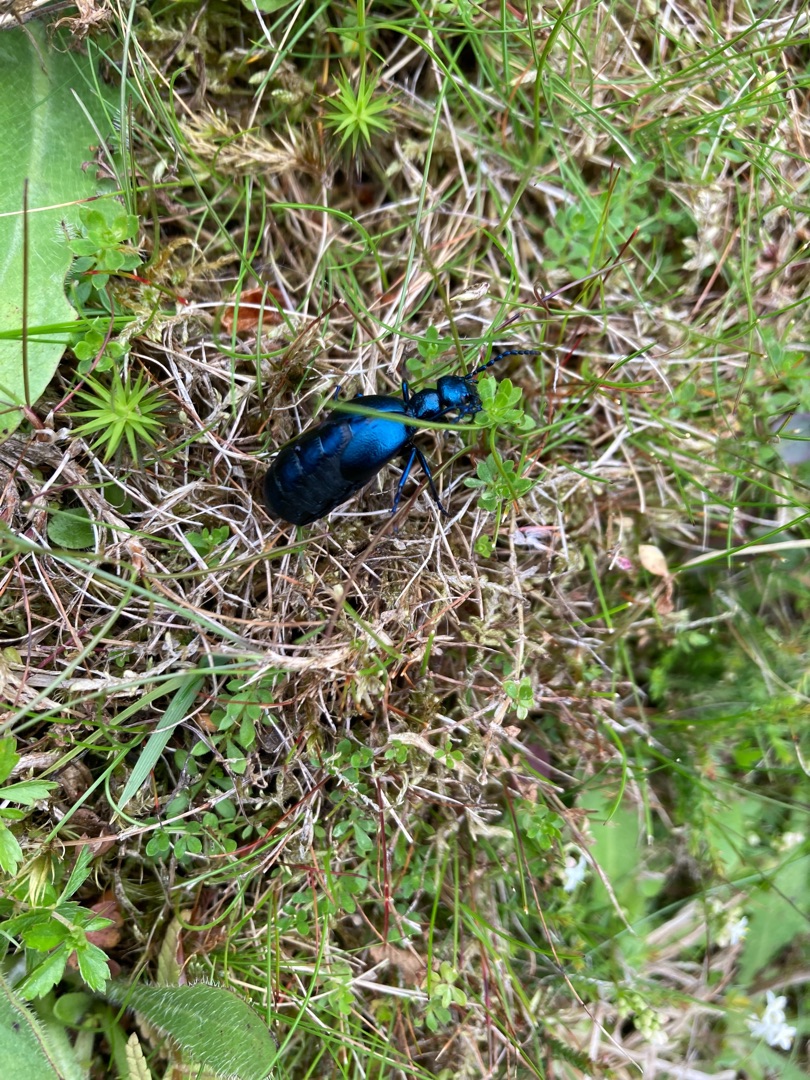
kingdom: Animalia
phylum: Arthropoda
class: Insecta
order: Coleoptera
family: Meloidae
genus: Meloe
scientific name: Meloe violaceus
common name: Blå oliebille
